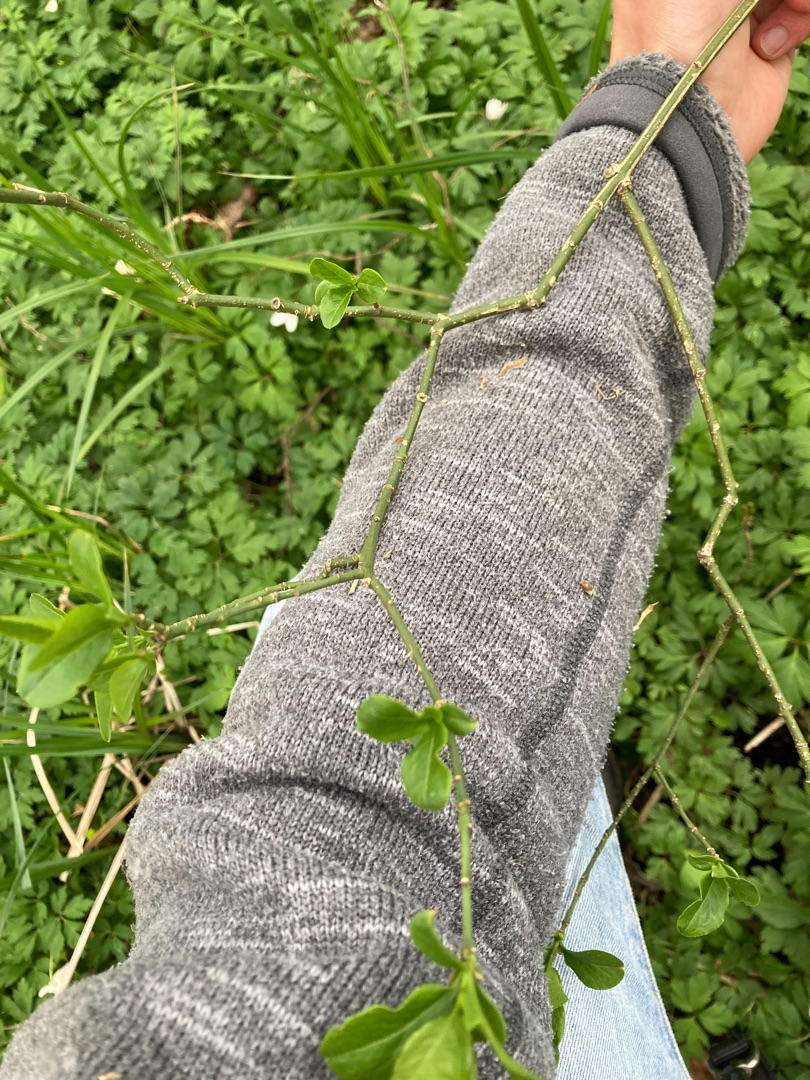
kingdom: Plantae
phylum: Tracheophyta
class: Magnoliopsida
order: Celastrales
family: Celastraceae
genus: Euonymus
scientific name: Euonymus europaeus
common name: Benved
